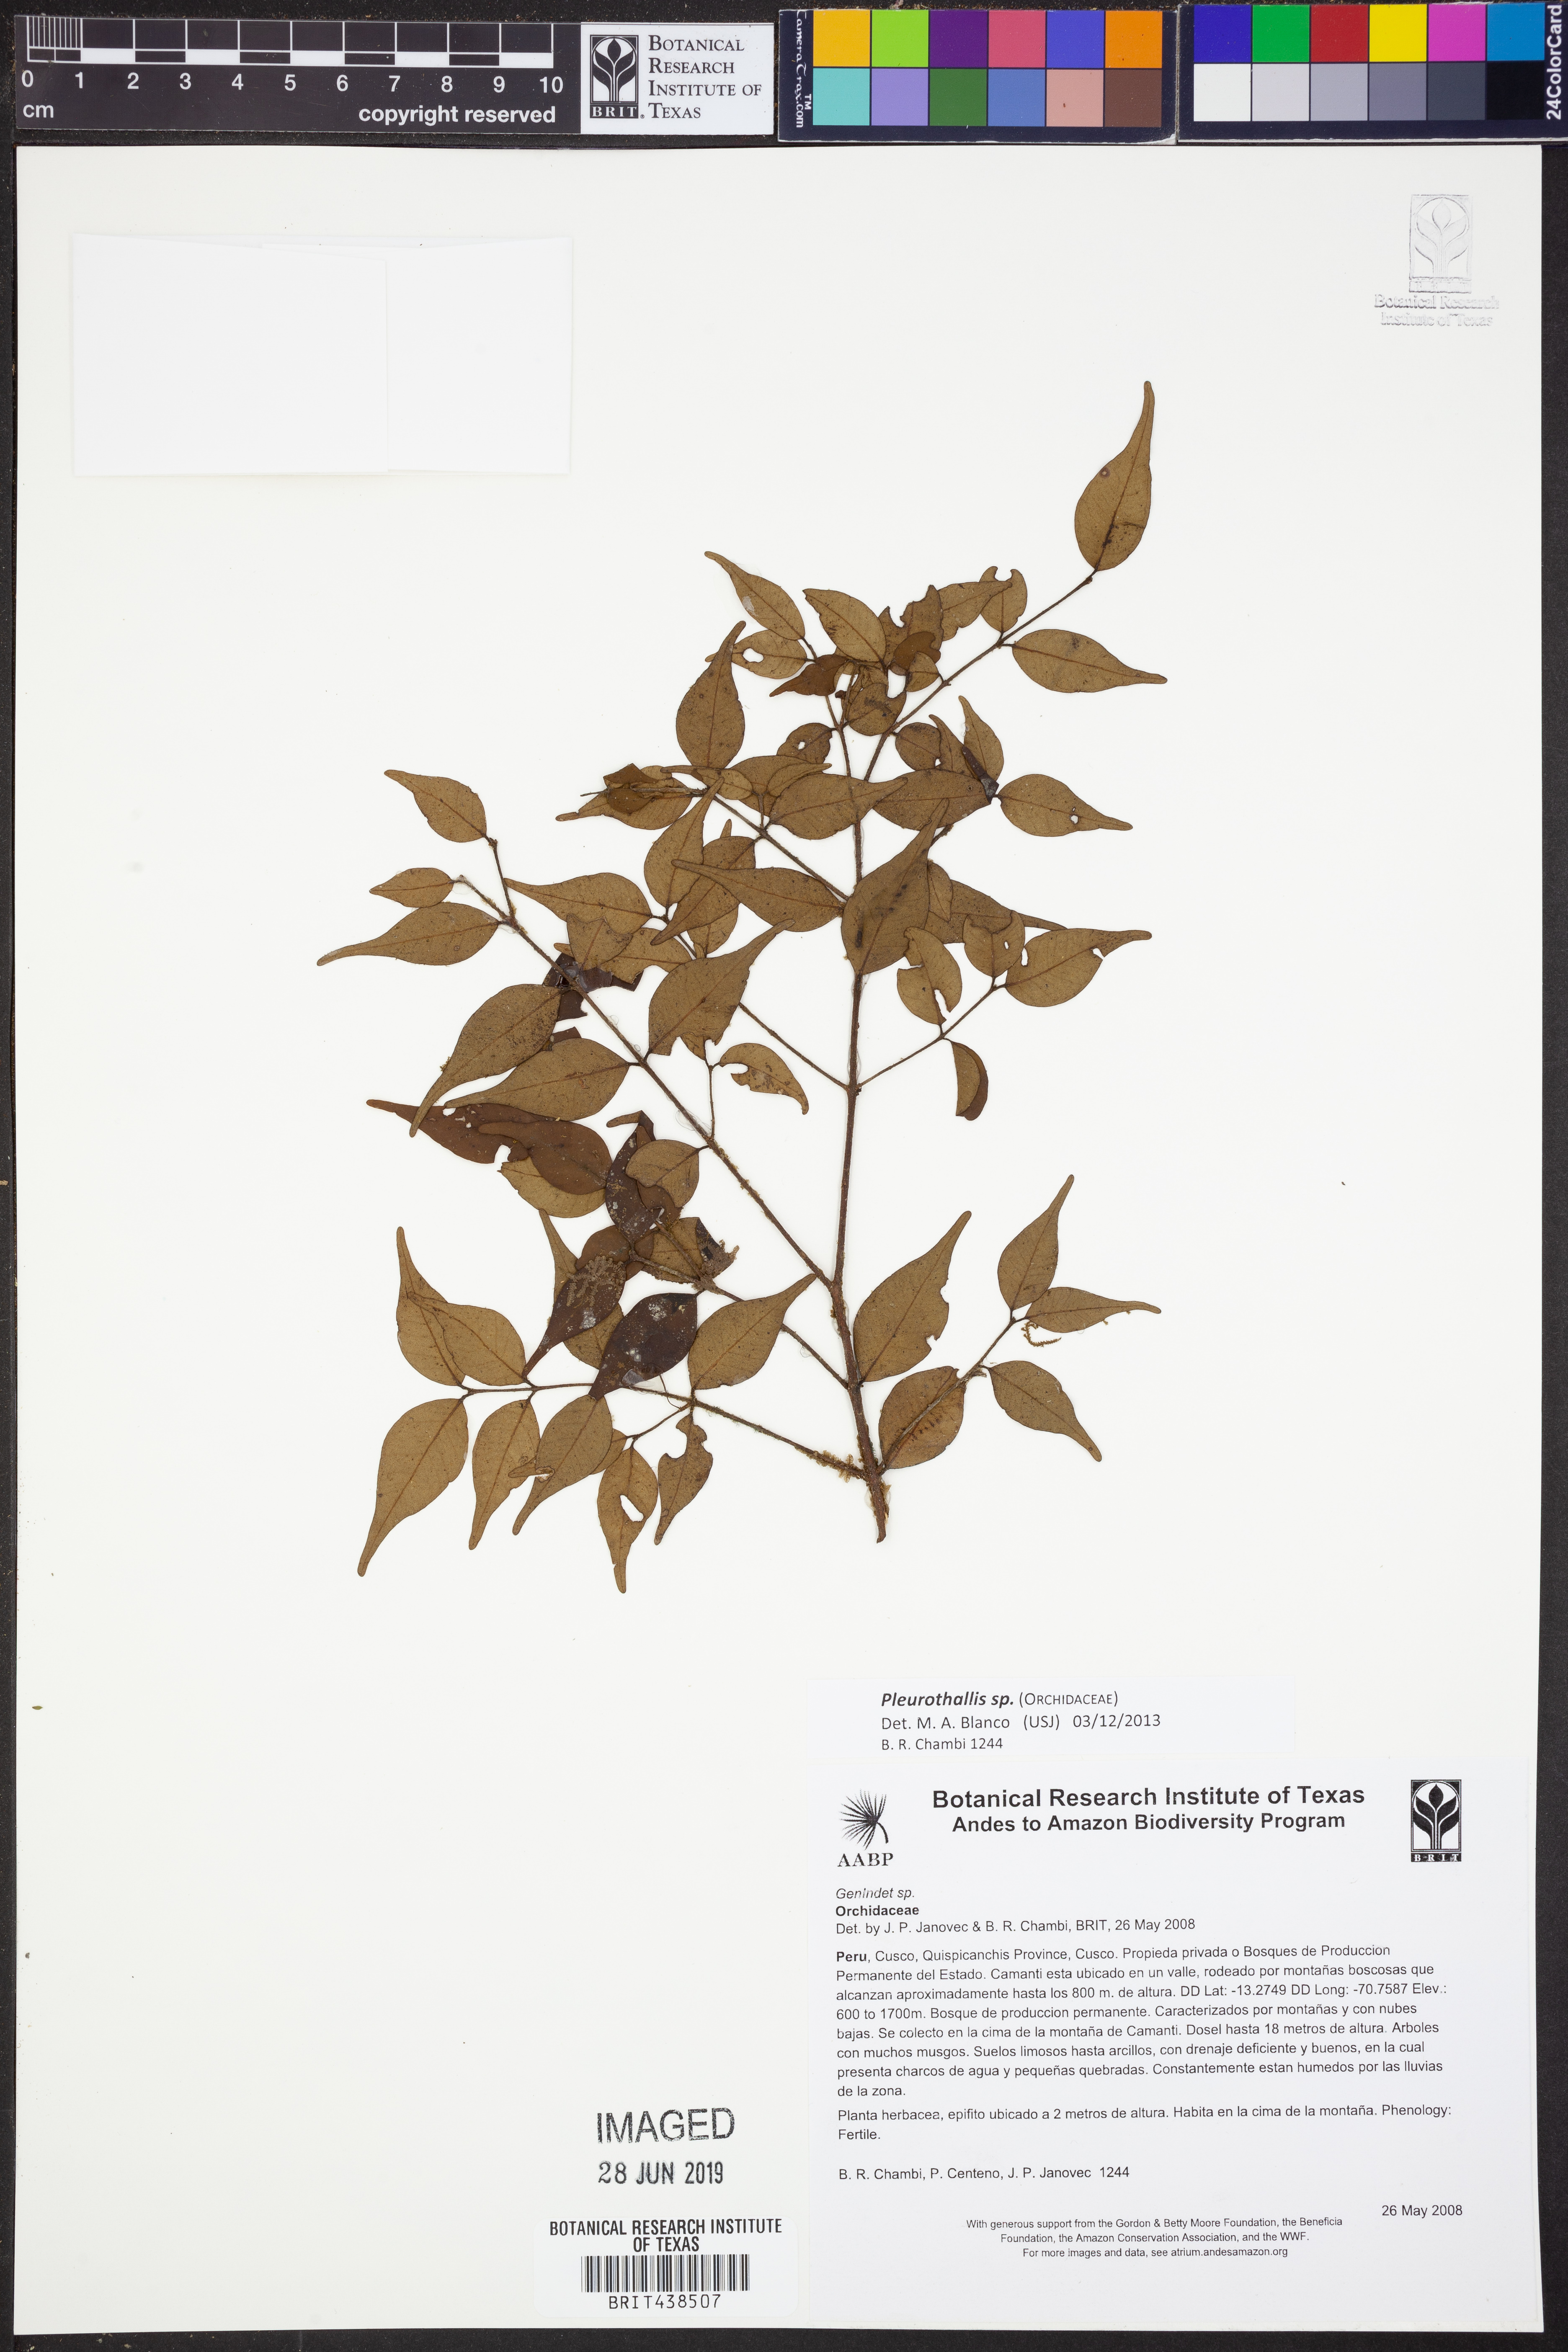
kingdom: Plantae
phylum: Tracheophyta
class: Liliopsida
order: Asparagales
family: Orchidaceae
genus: Pleurothallis
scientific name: Pleurothallis
